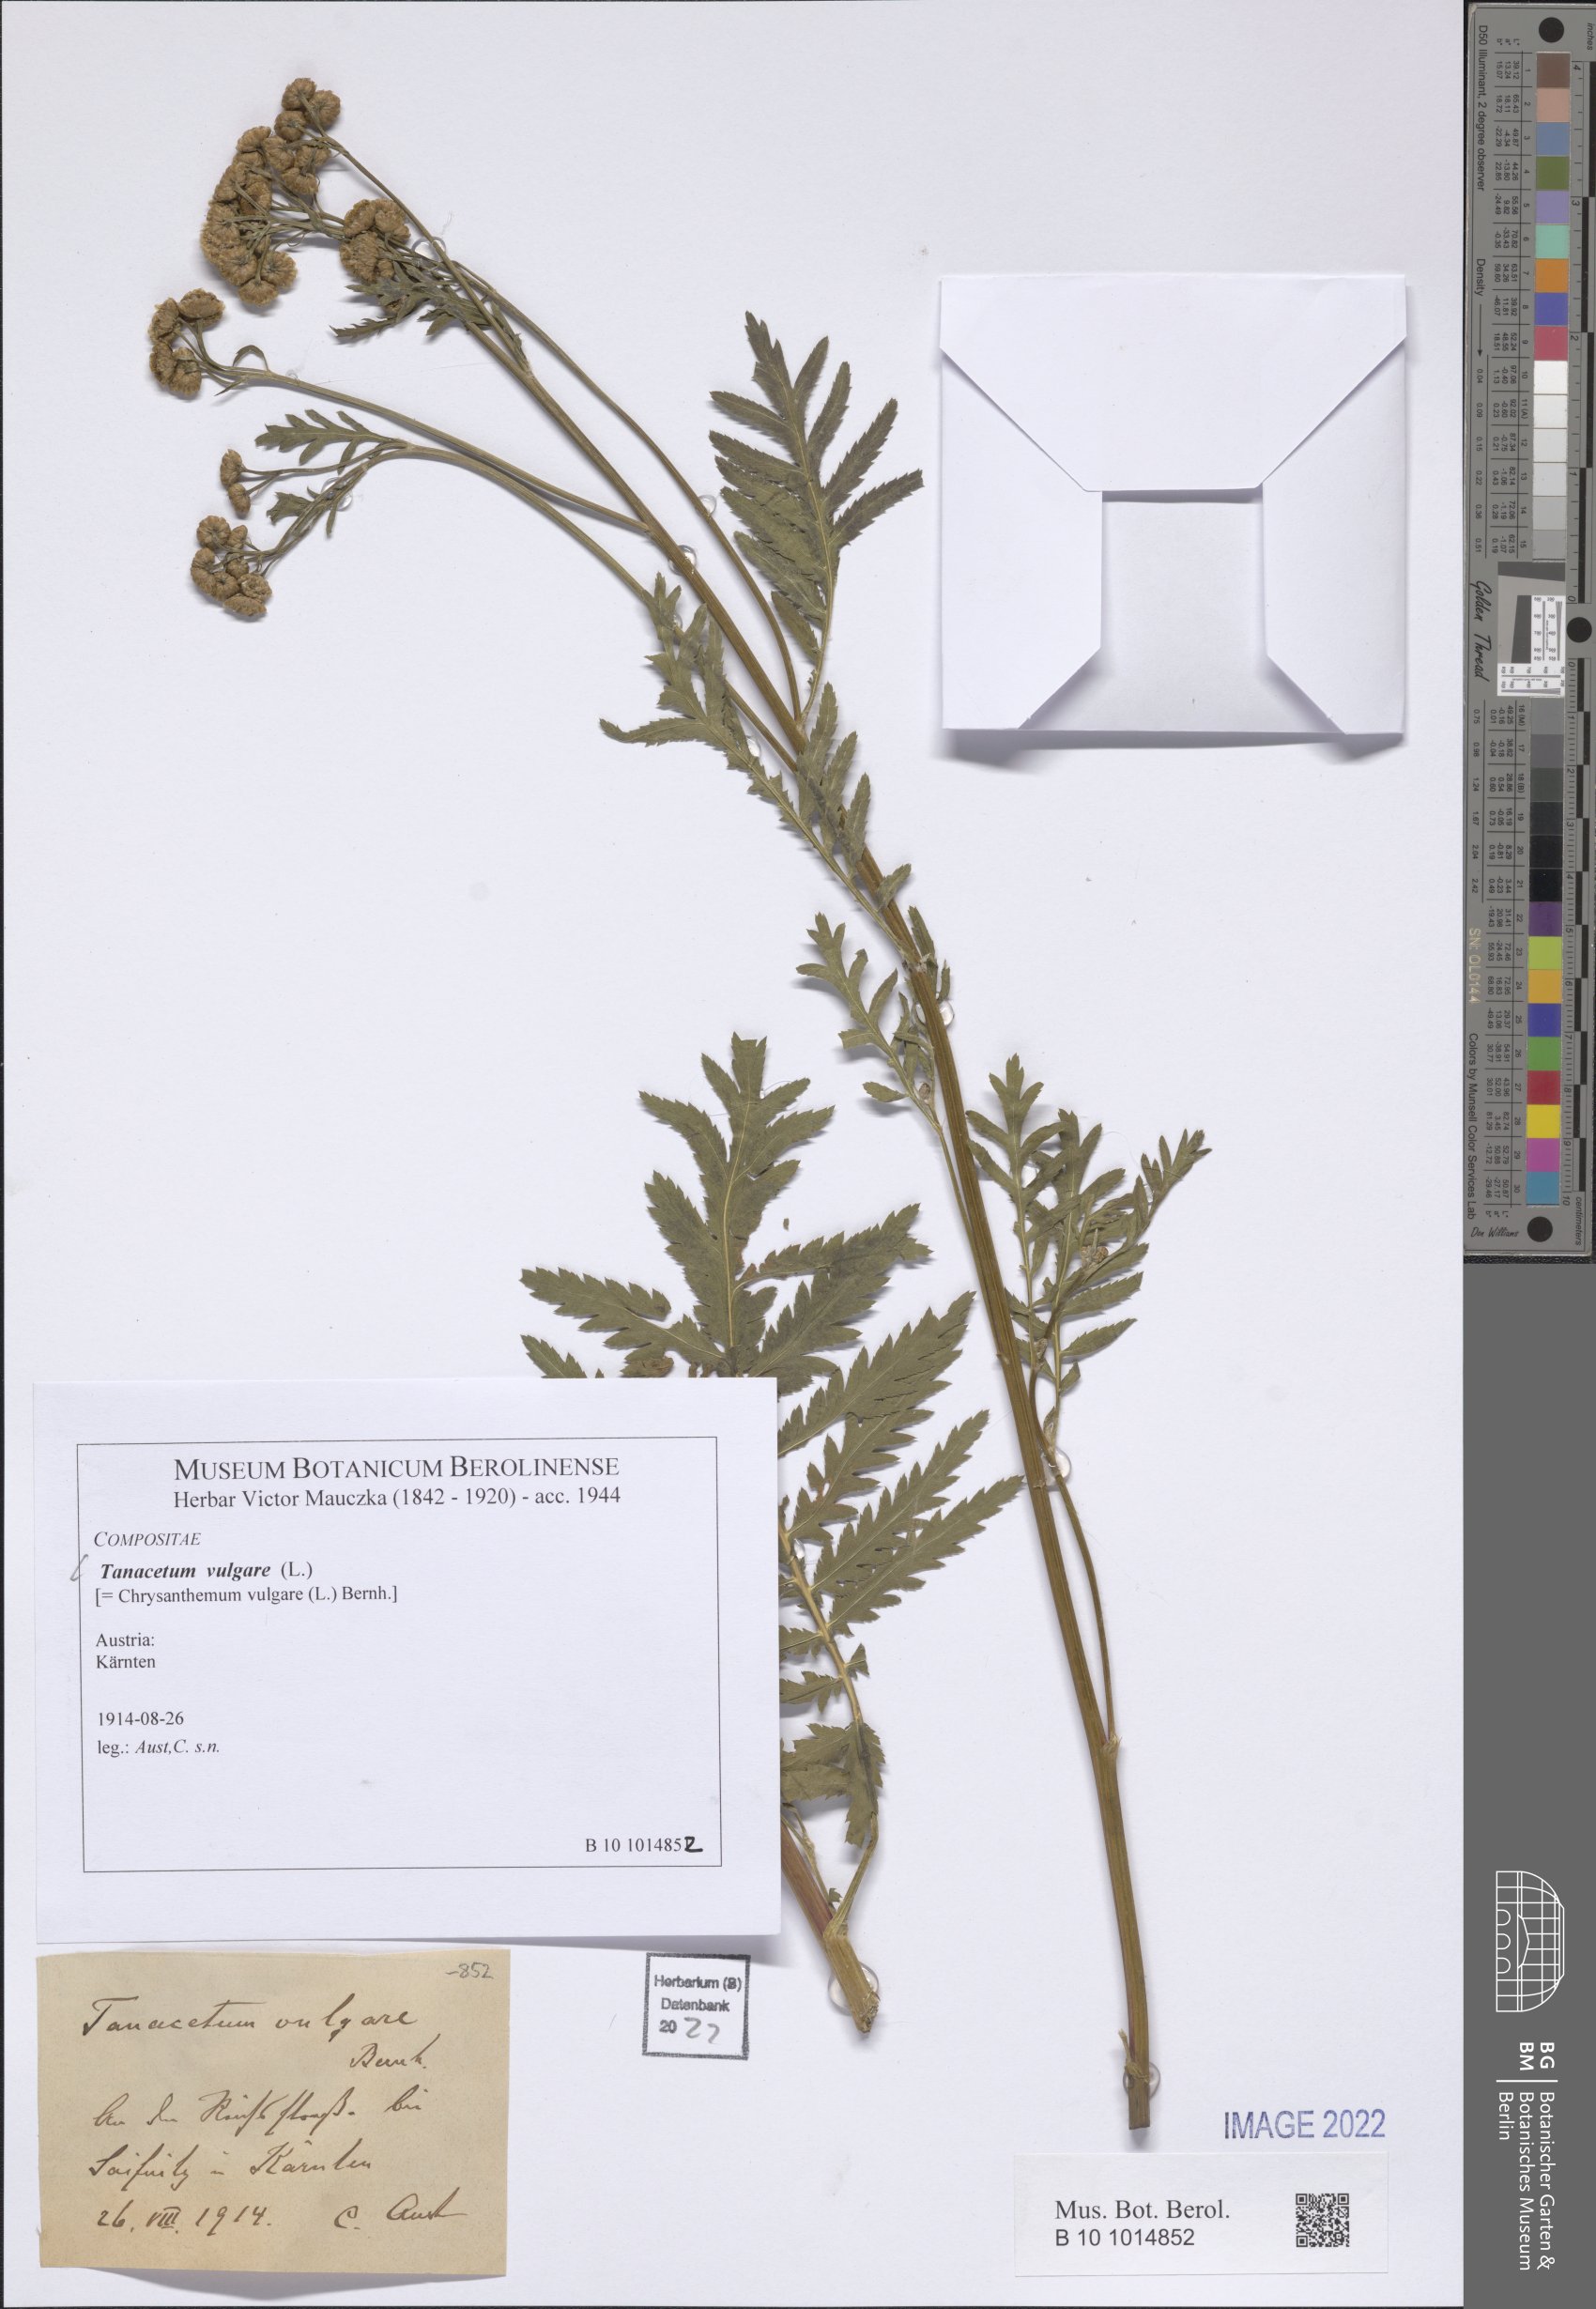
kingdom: Plantae
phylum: Tracheophyta
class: Magnoliopsida
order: Asterales
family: Asteraceae
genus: Tanacetum
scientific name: Tanacetum vulgare
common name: Common tansy
